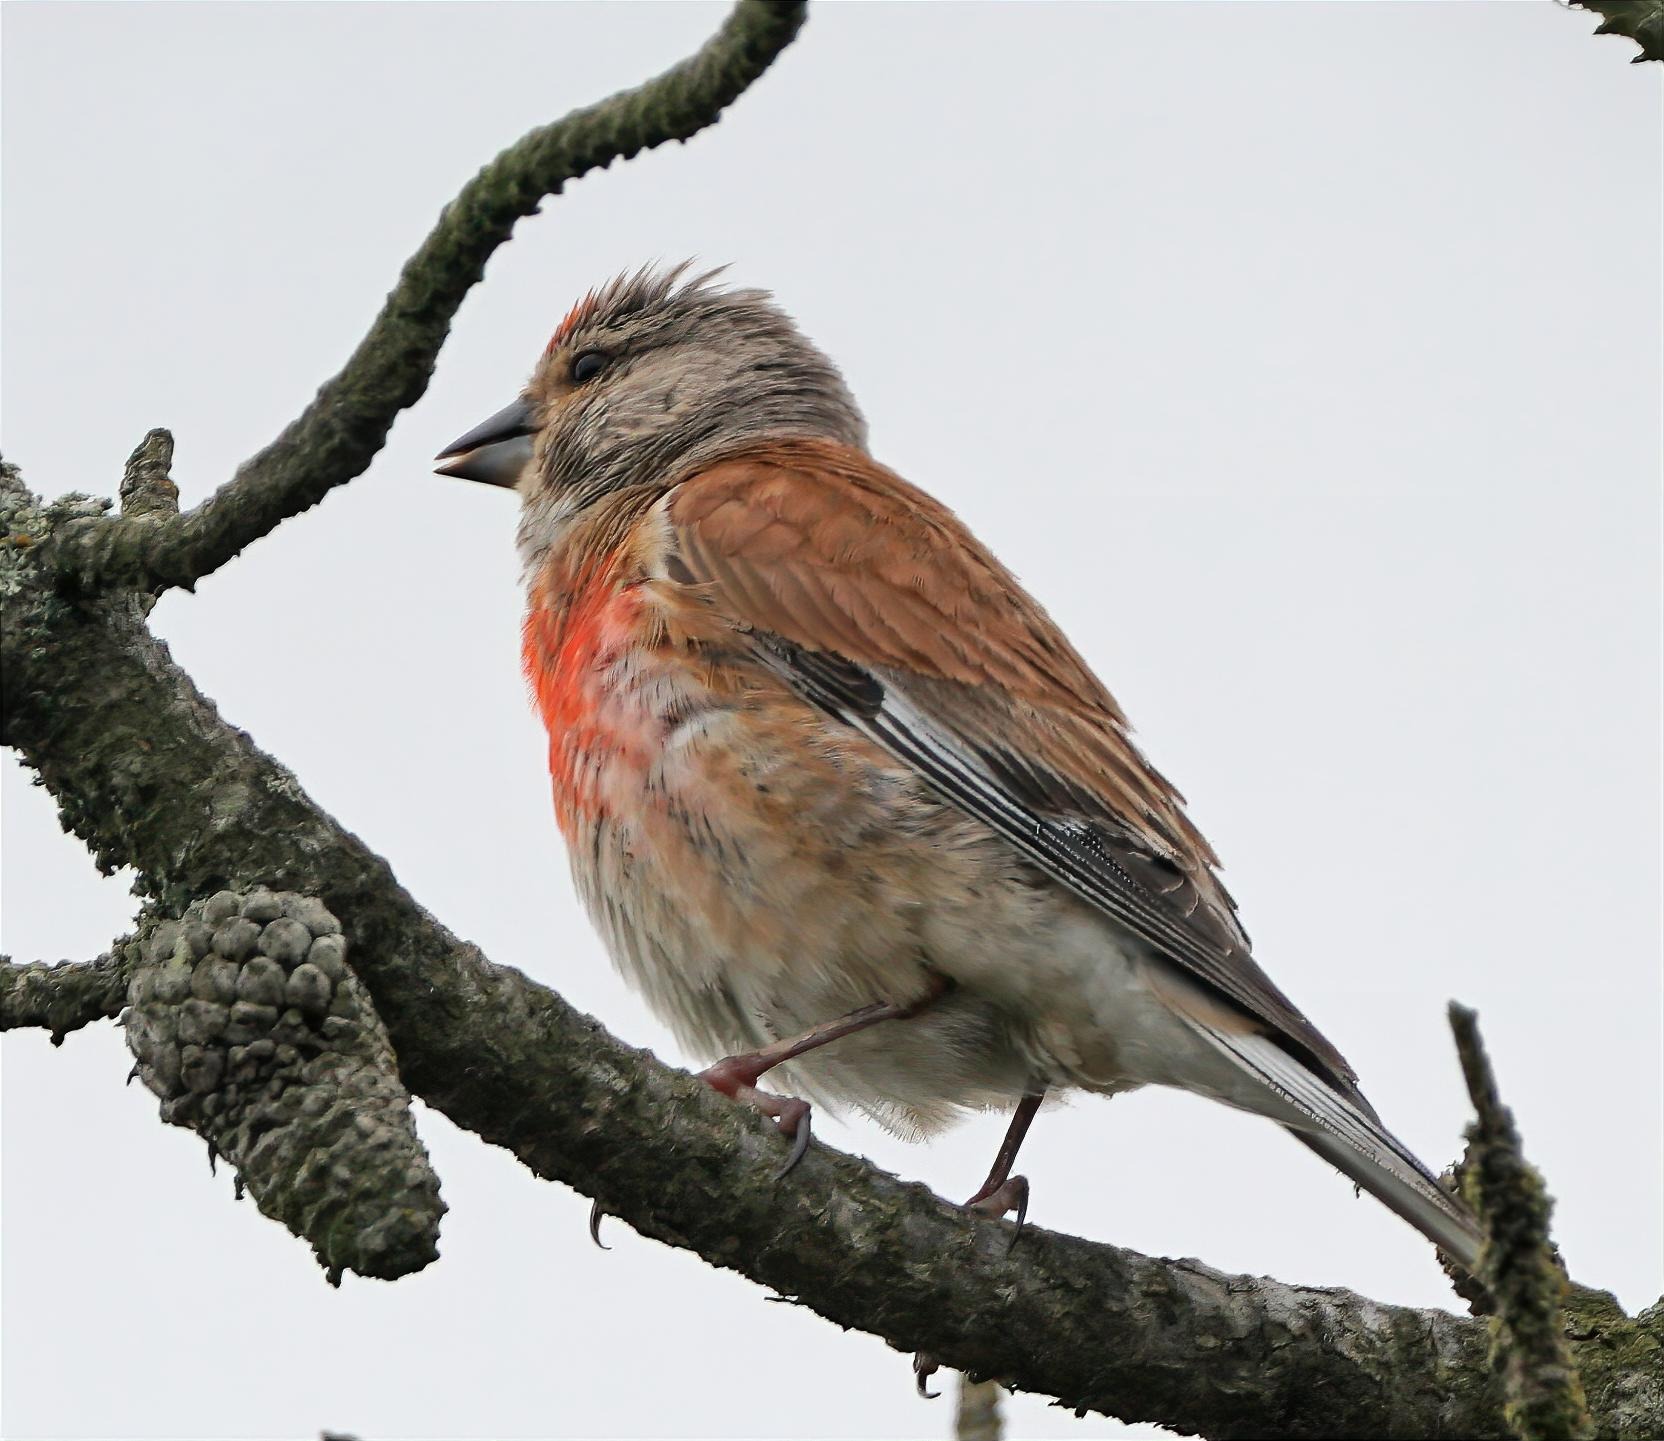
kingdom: Animalia
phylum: Chordata
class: Aves
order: Passeriformes
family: Fringillidae
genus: Linaria
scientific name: Linaria cannabina
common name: Tornirisk
